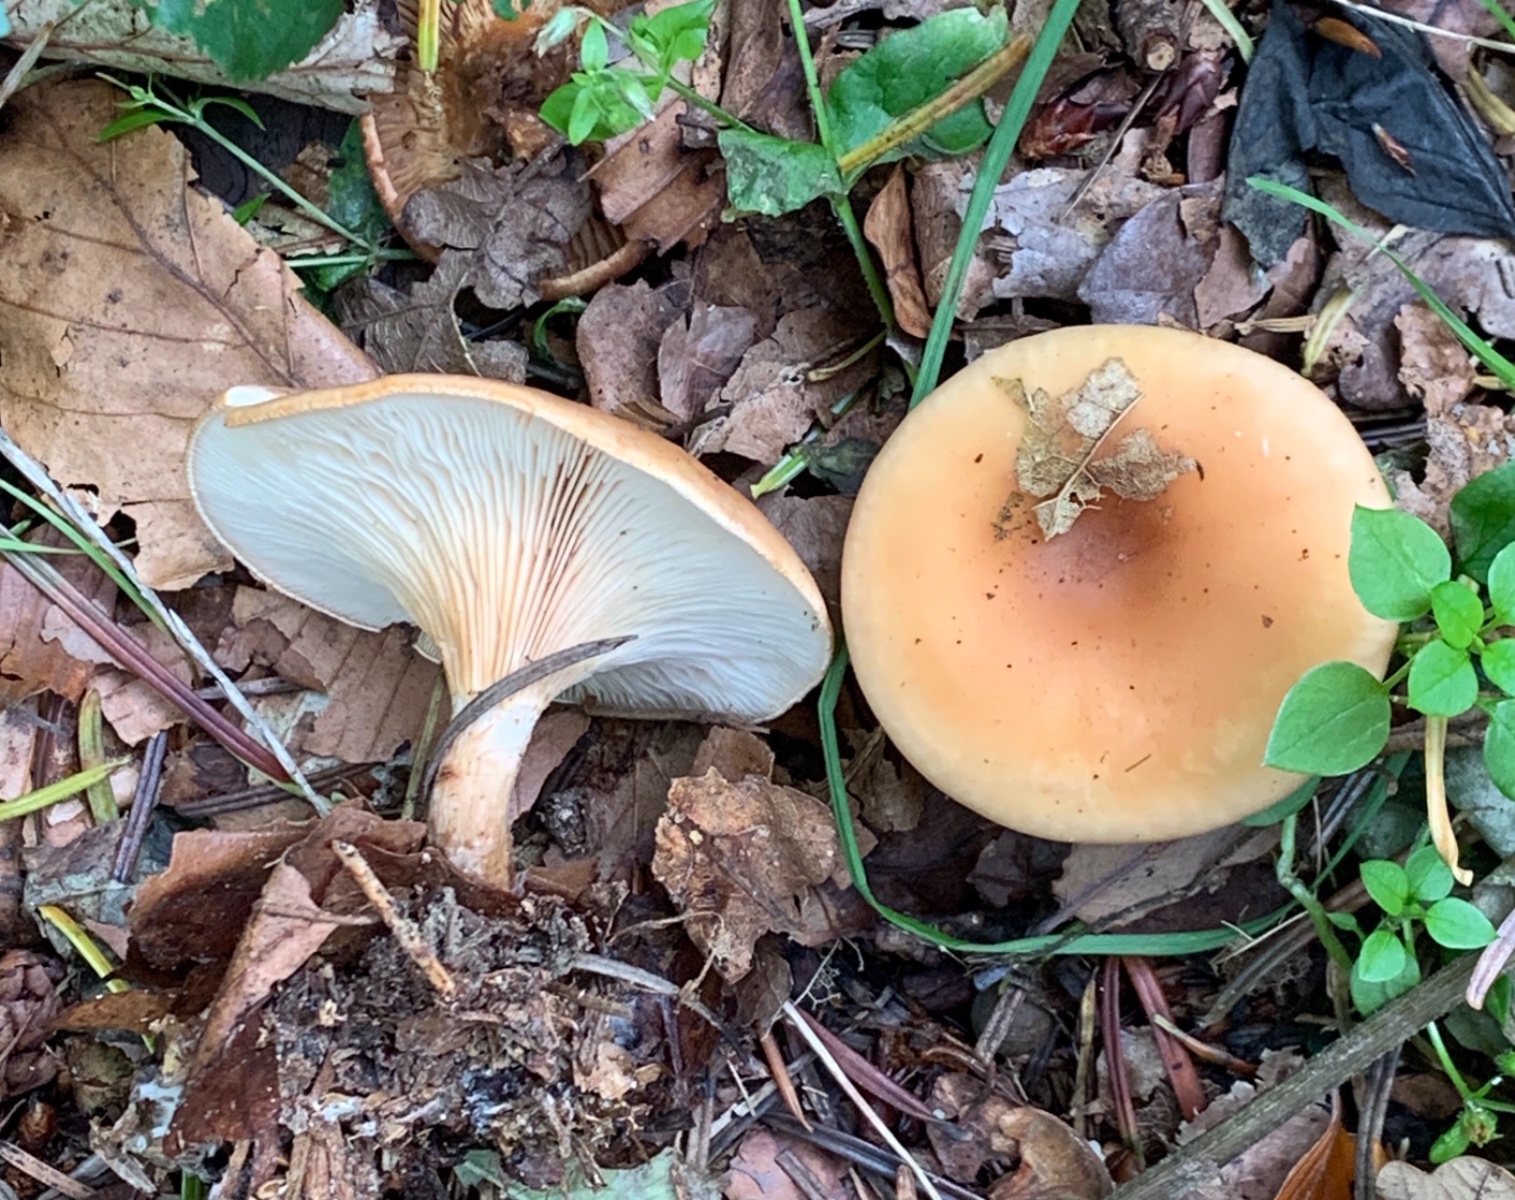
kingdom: Fungi
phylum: Basidiomycota
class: Agaricomycetes
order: Agaricales
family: Tricholomataceae
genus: Paralepista
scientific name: Paralepista flaccida
